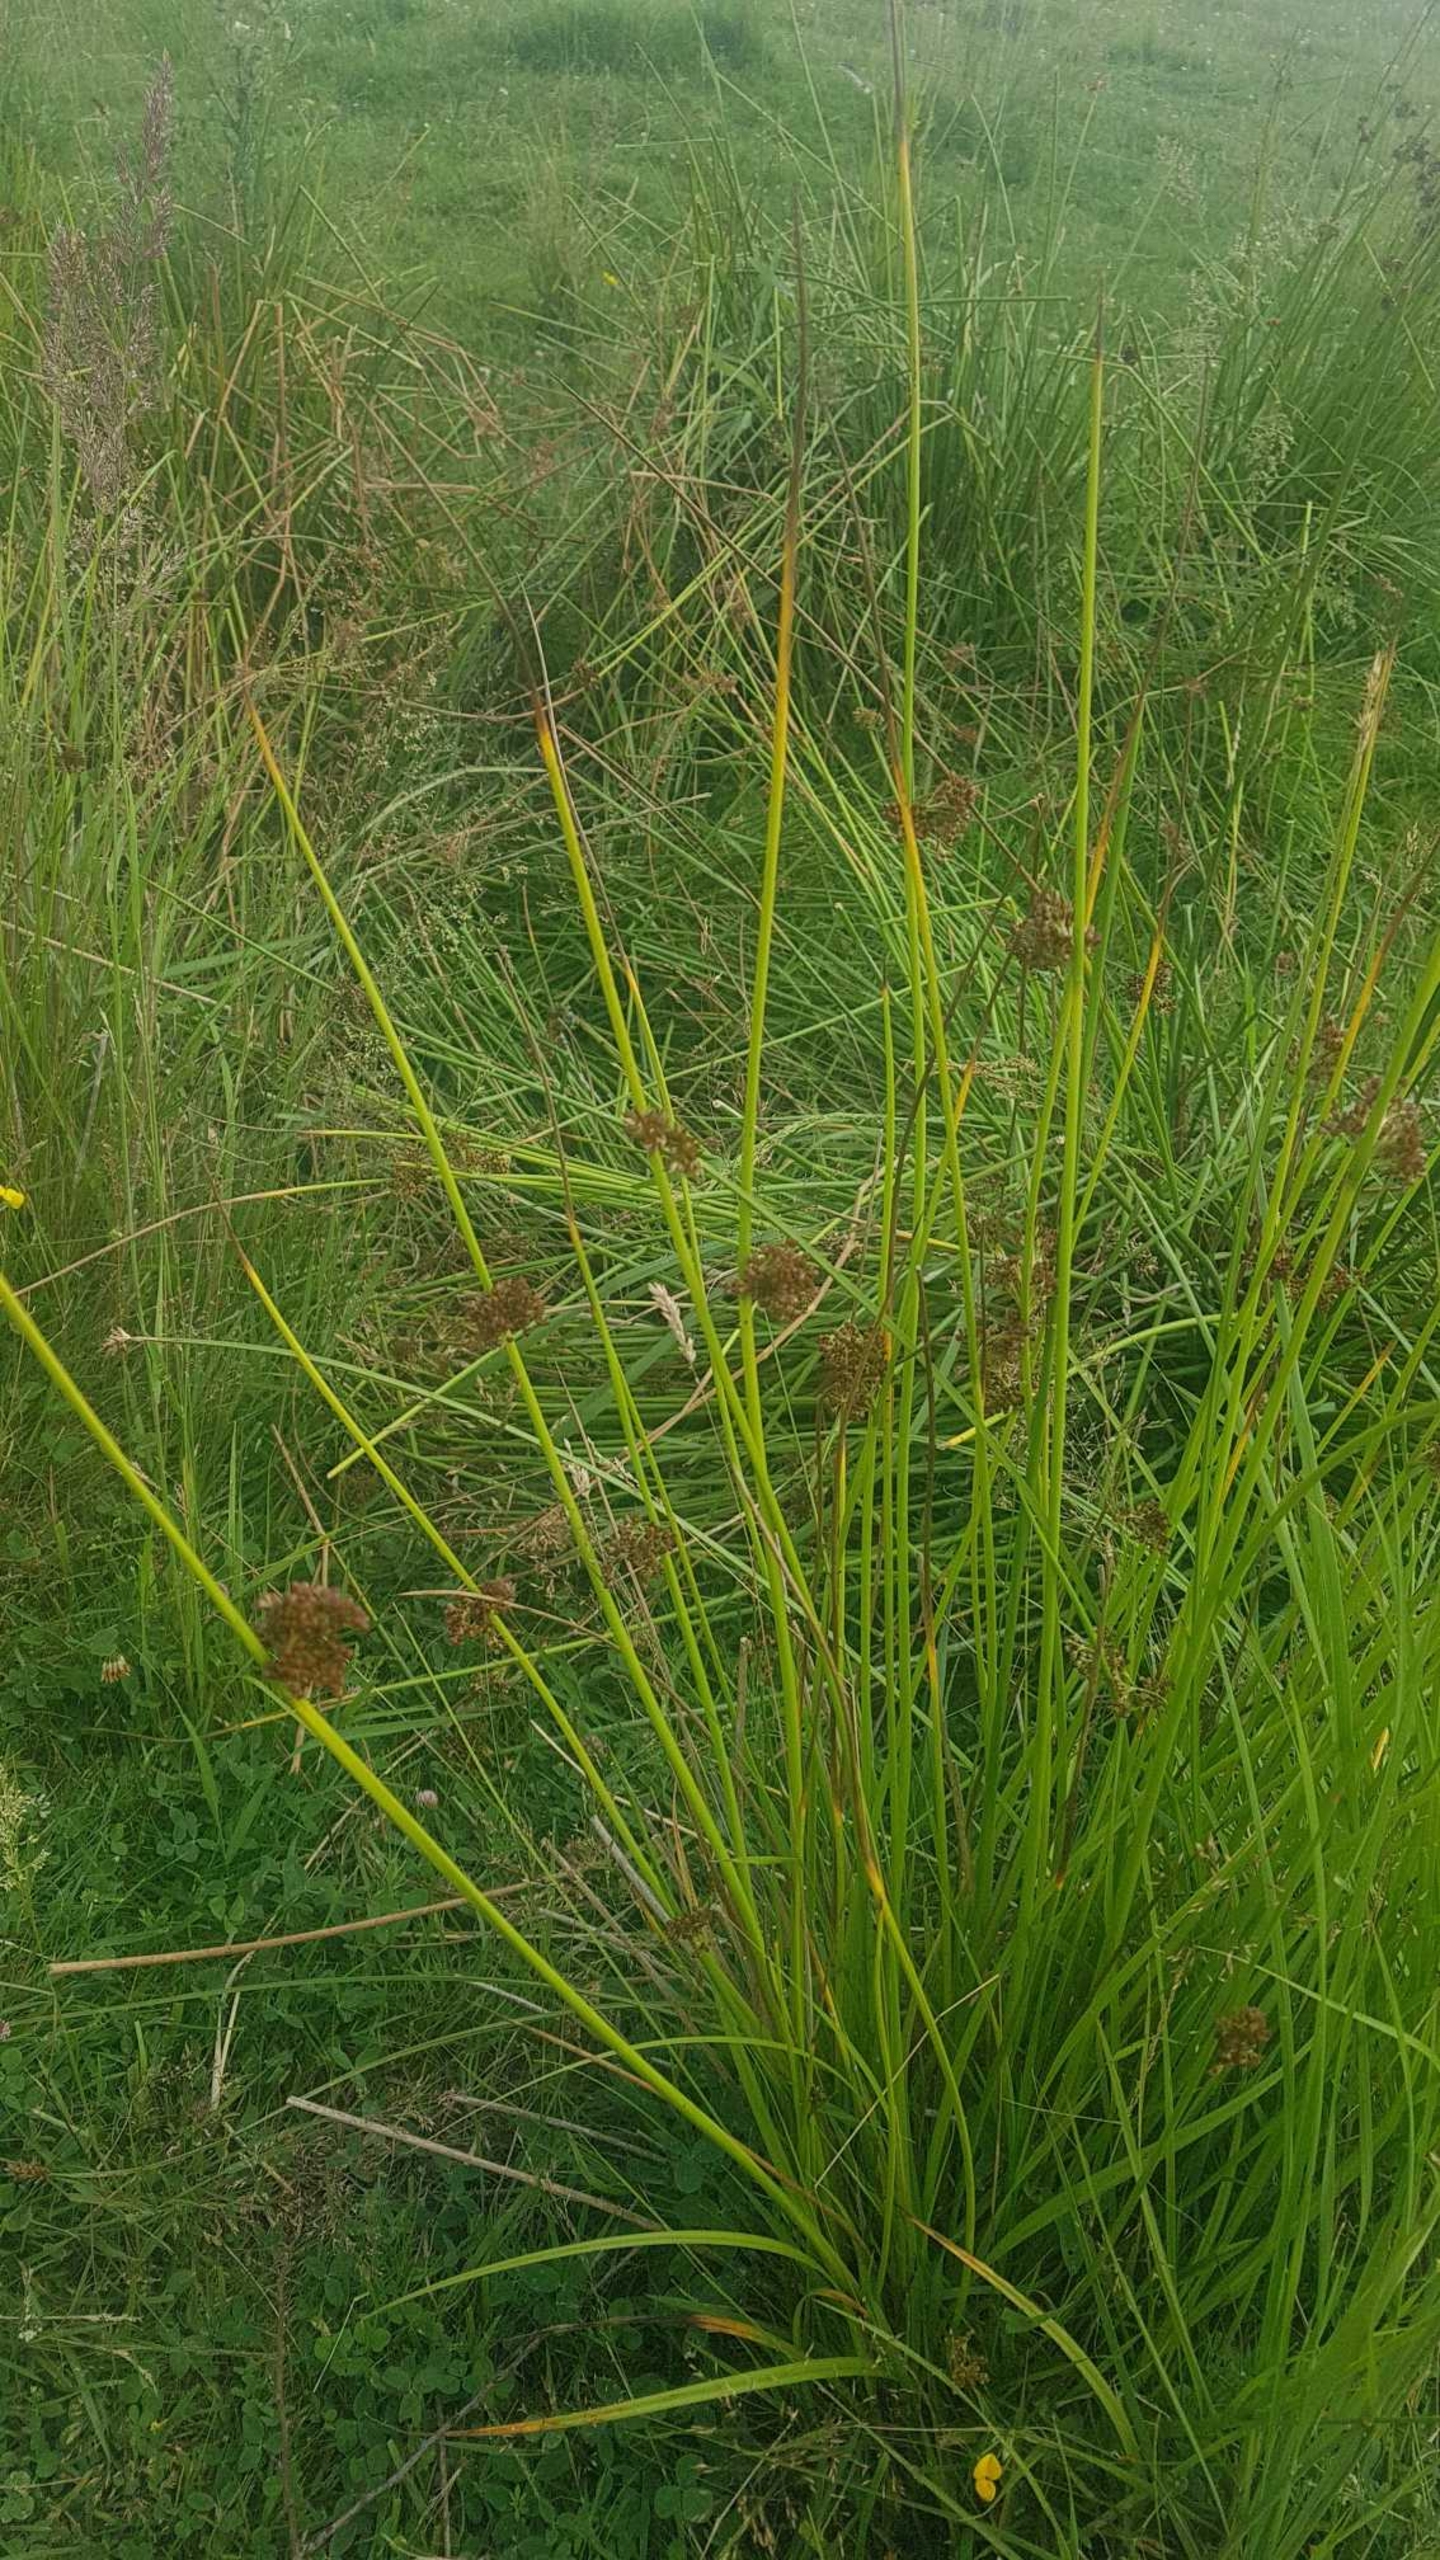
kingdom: Plantae
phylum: Tracheophyta
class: Liliopsida
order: Poales
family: Juncaceae
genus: Juncus
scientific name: Juncus effusus
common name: Lyse-siv
